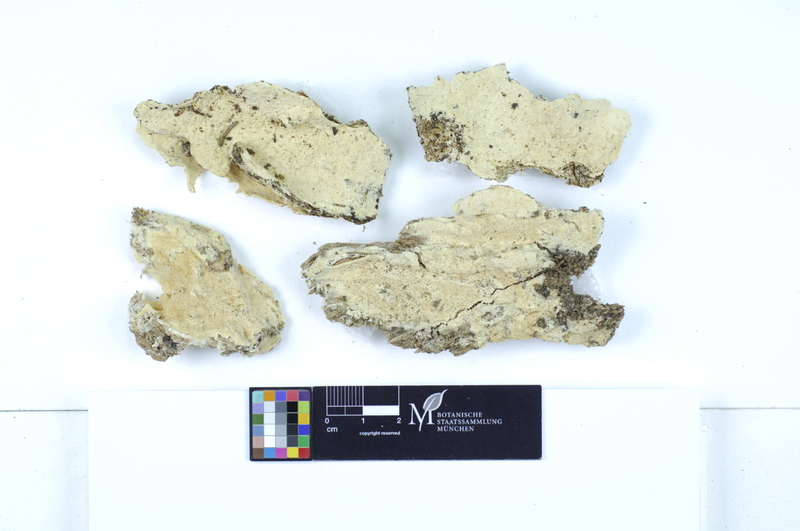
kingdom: Plantae
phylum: Tracheophyta
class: Pinopsida
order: Pinales
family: Pinaceae
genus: Picea
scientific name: Picea
